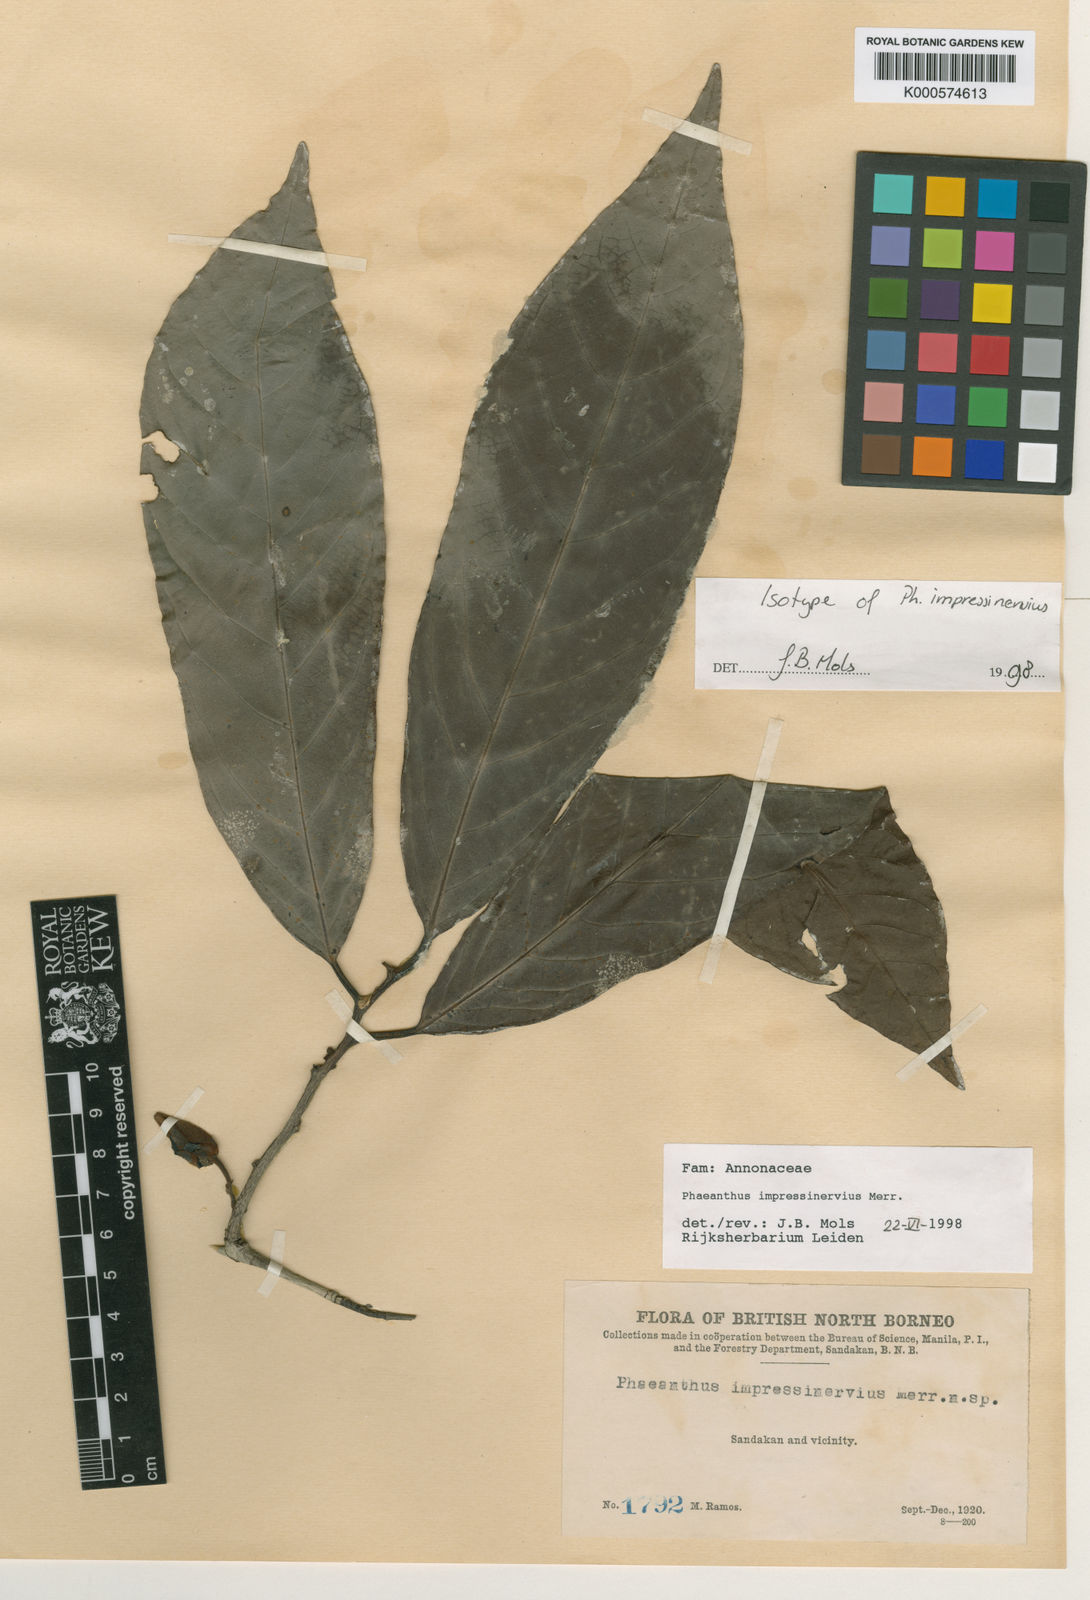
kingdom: Plantae
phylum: Tracheophyta
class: Magnoliopsida
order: Magnoliales
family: Annonaceae
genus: Phaeanthus
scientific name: Phaeanthus impressinervius
